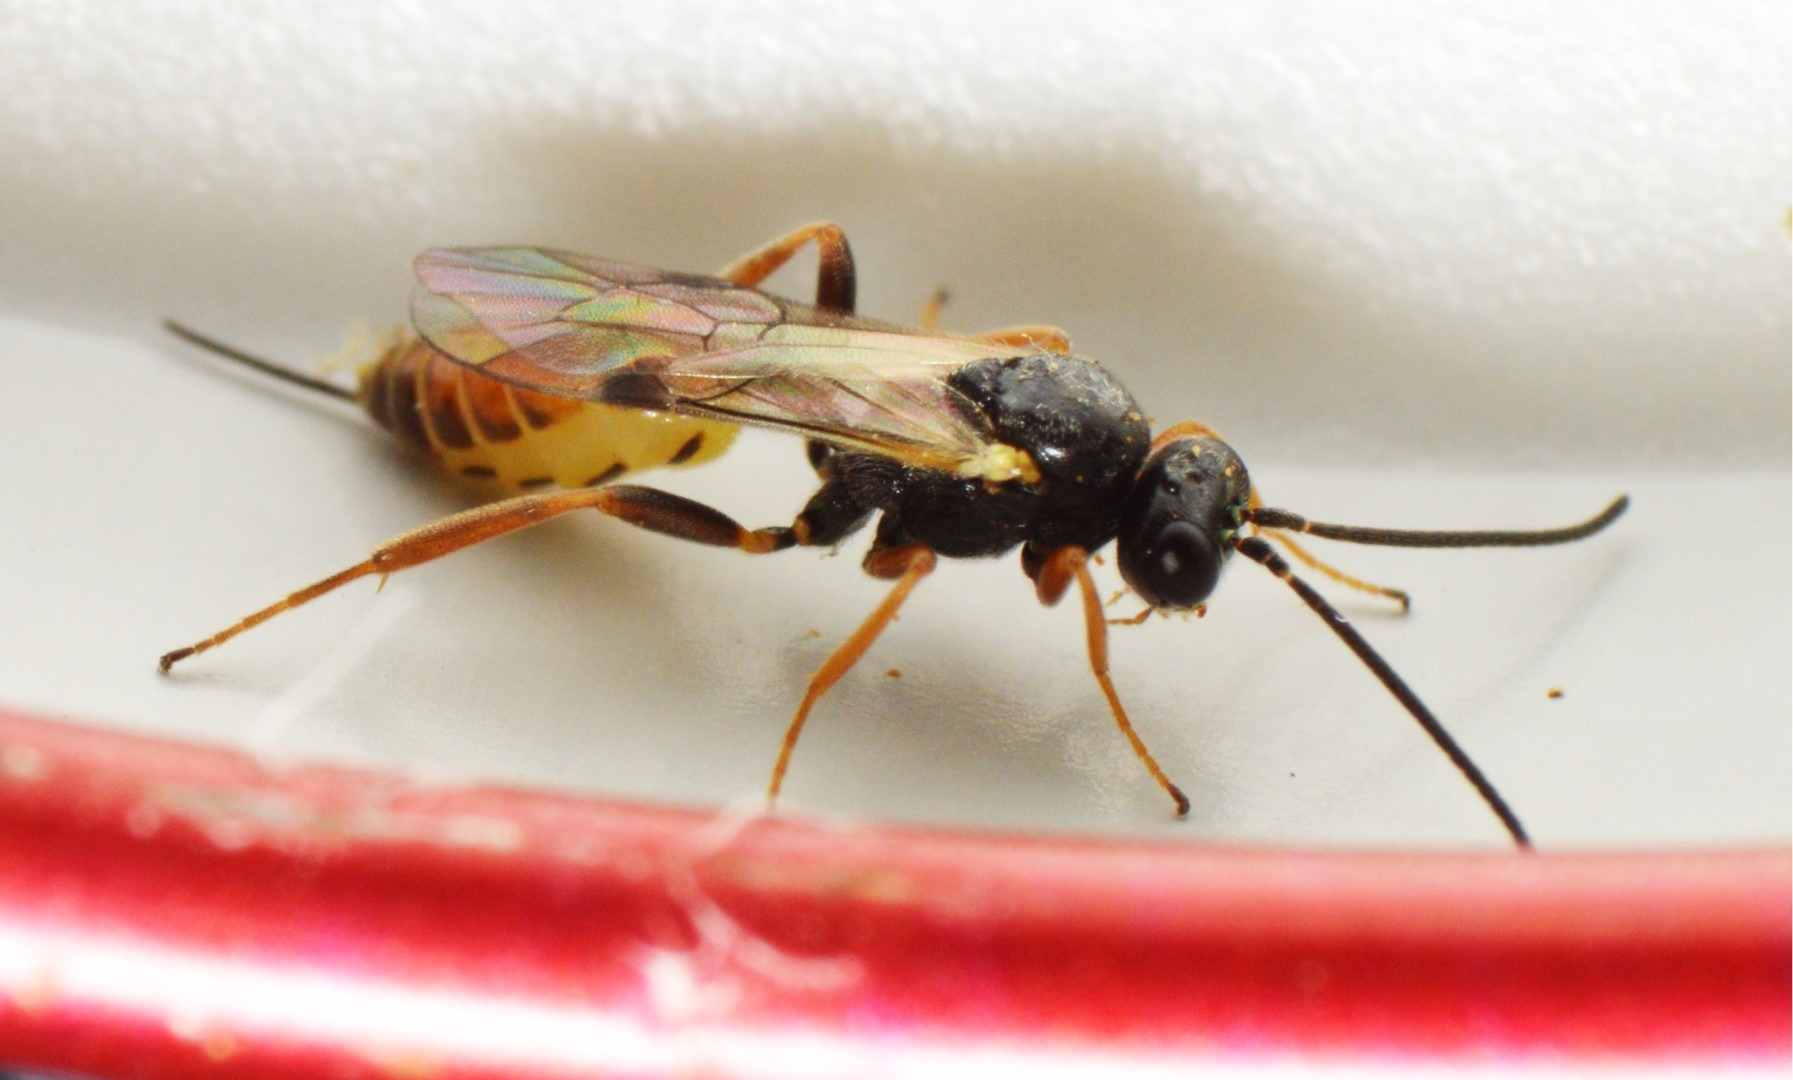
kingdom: Animalia
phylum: Arthropoda
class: Insecta
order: Hymenoptera
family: Ichneumonidae
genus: Orthopelma
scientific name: Orthopelma mediator
